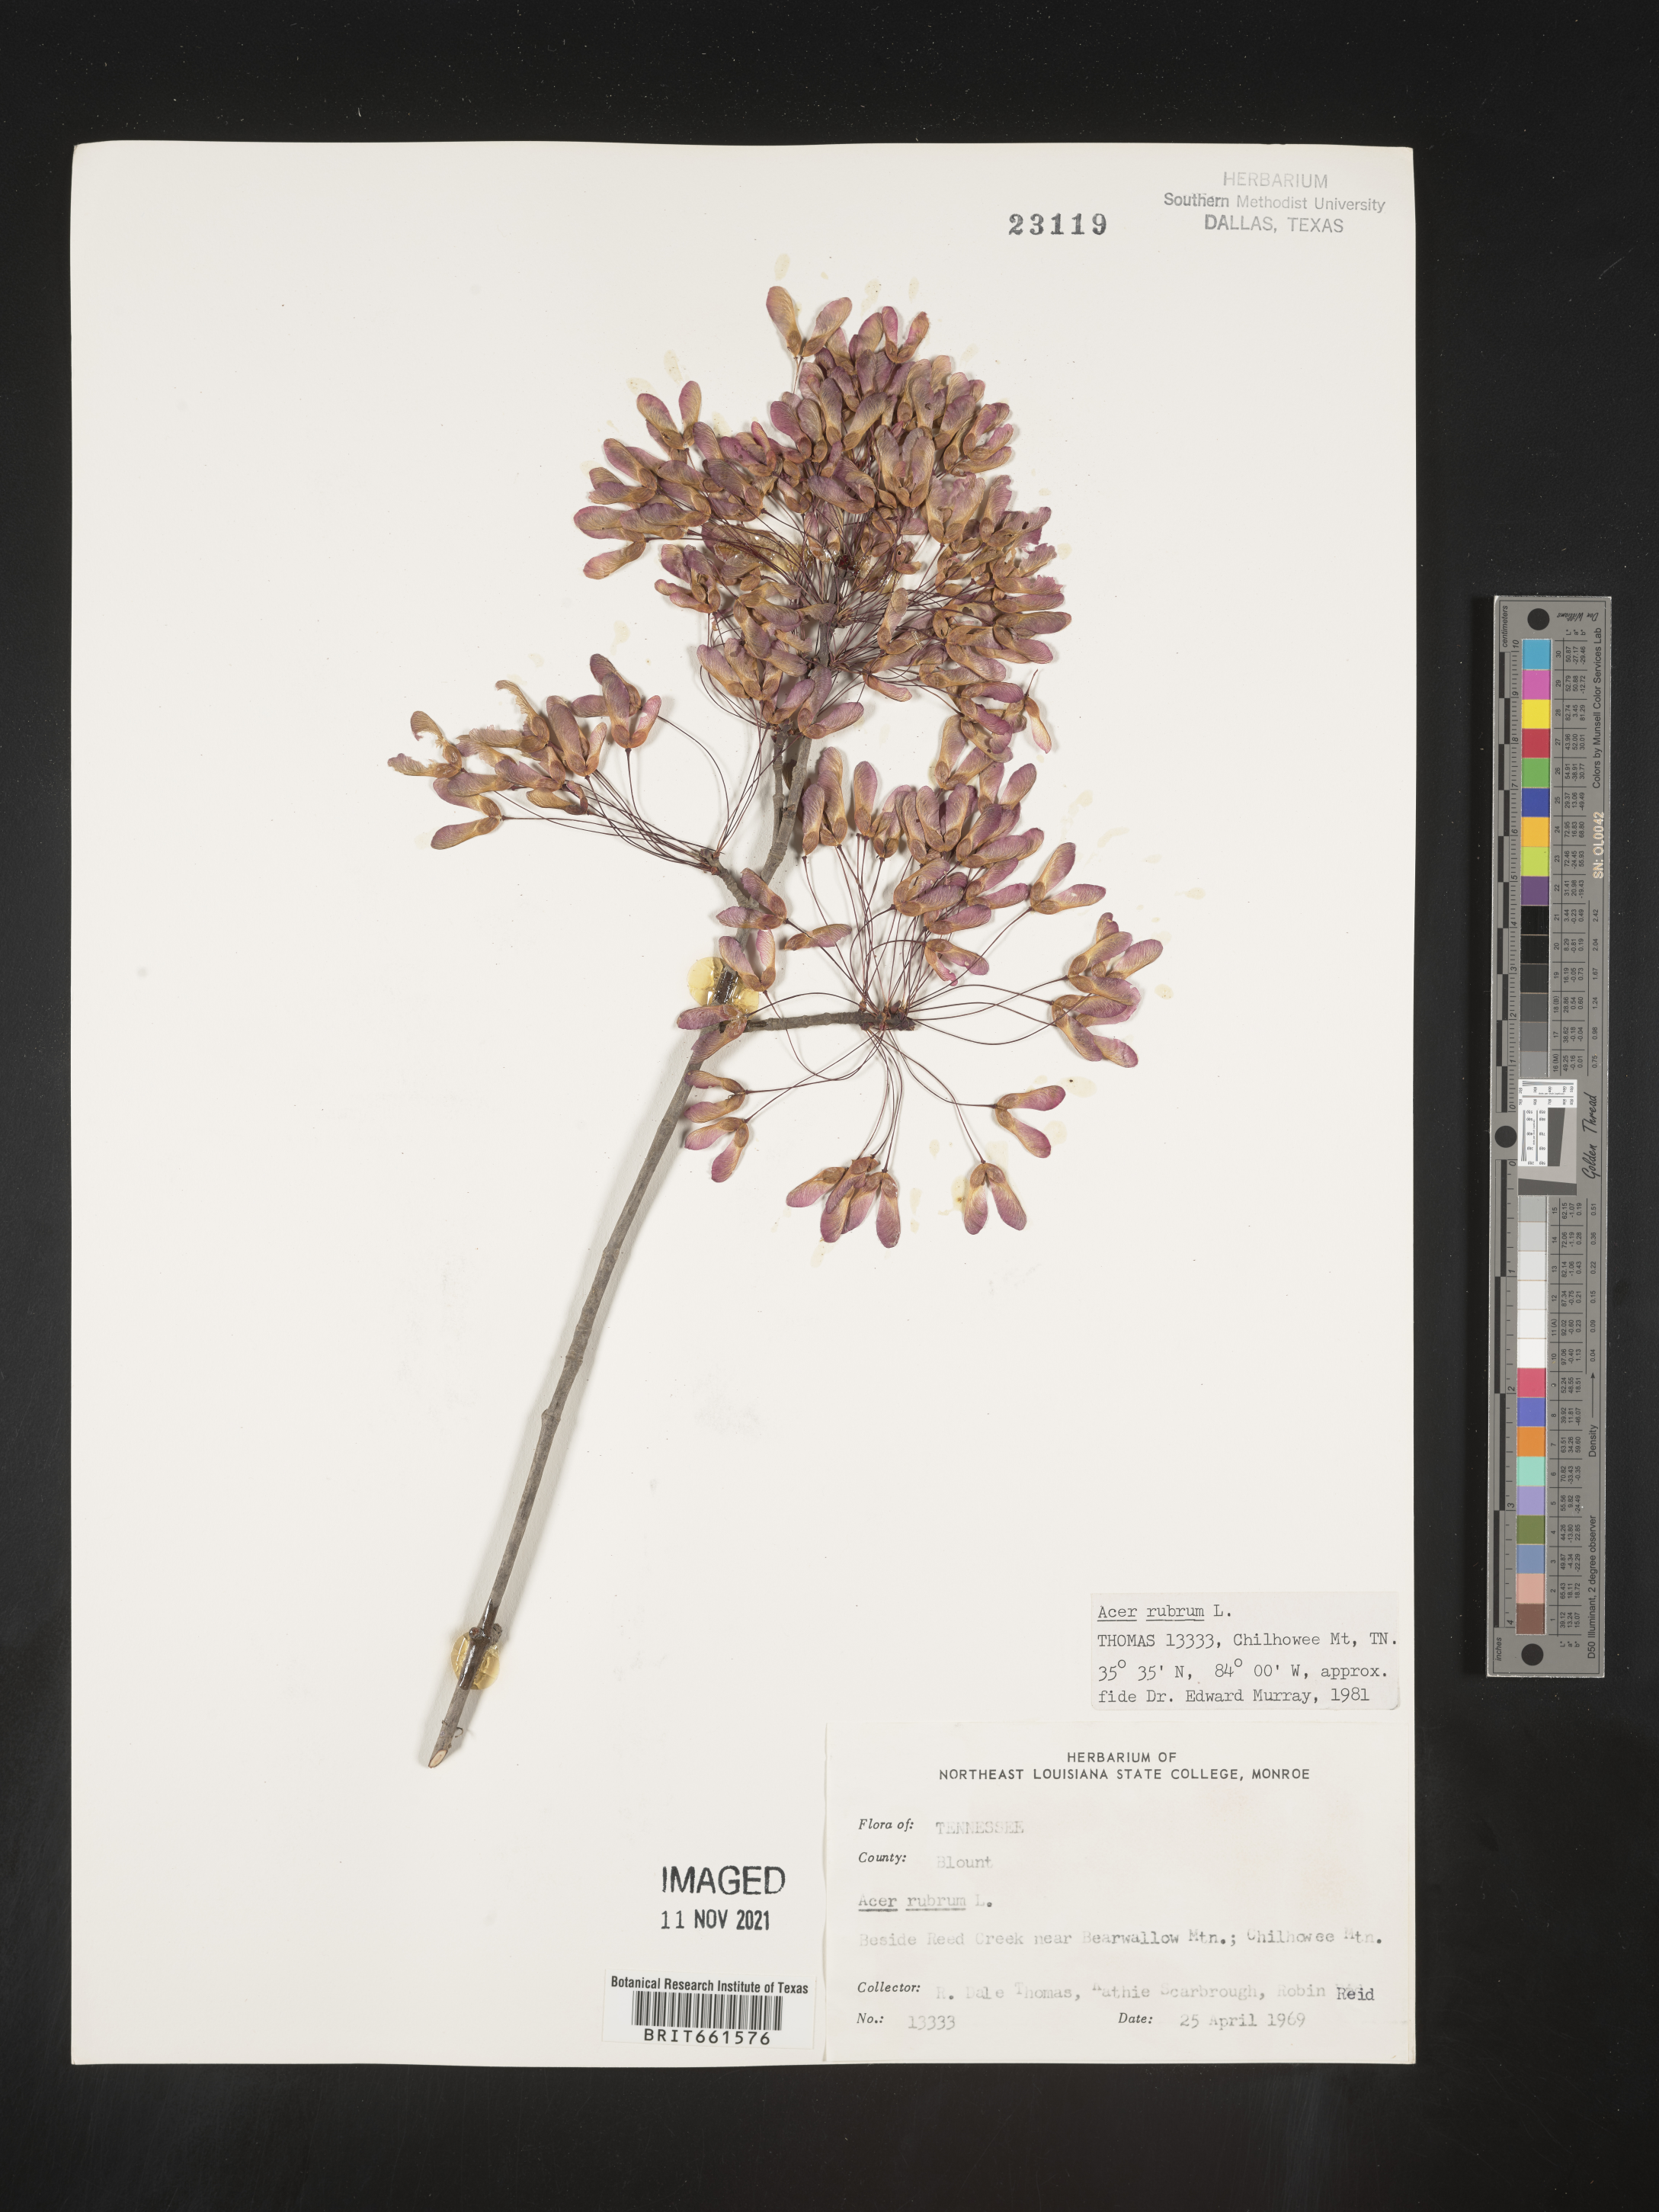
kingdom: Plantae
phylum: Tracheophyta
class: Magnoliopsida
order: Sapindales
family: Sapindaceae
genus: Acer
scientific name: Acer rubrum
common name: Red maple
